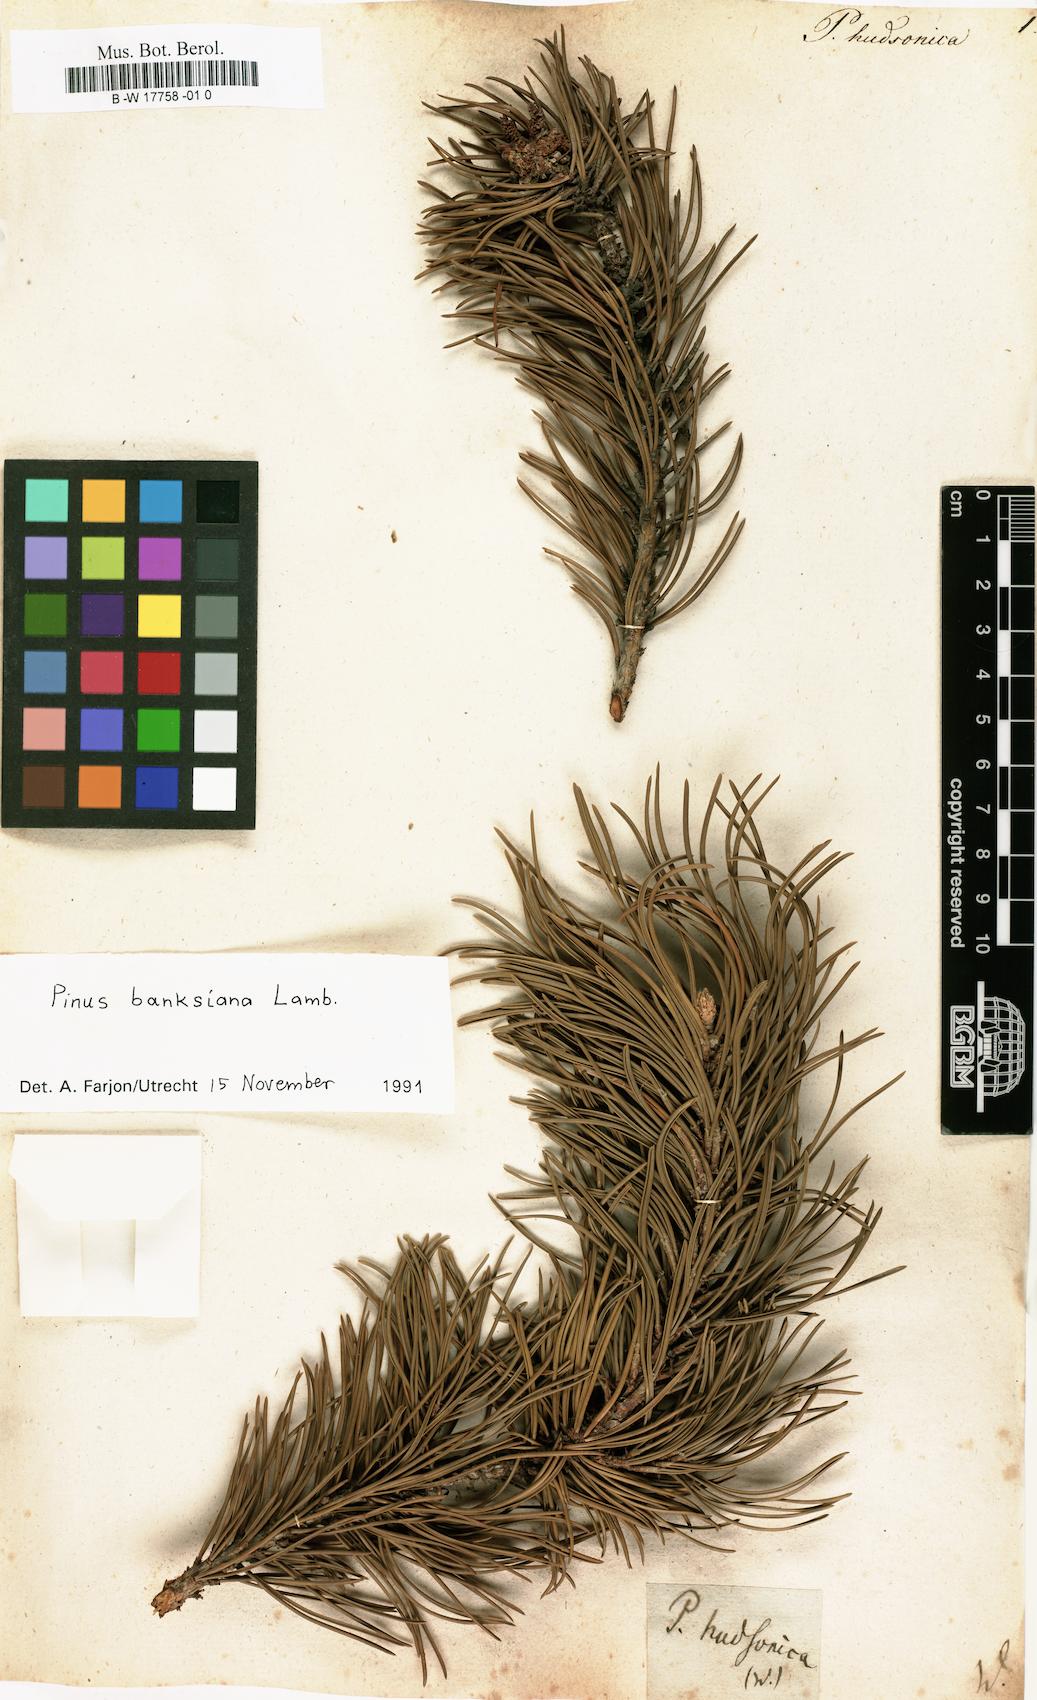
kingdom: Plantae
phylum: Tracheophyta
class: Pinopsida
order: Pinales
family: Pinaceae
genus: Pinus
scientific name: Pinus banksiana
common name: Jack pine
